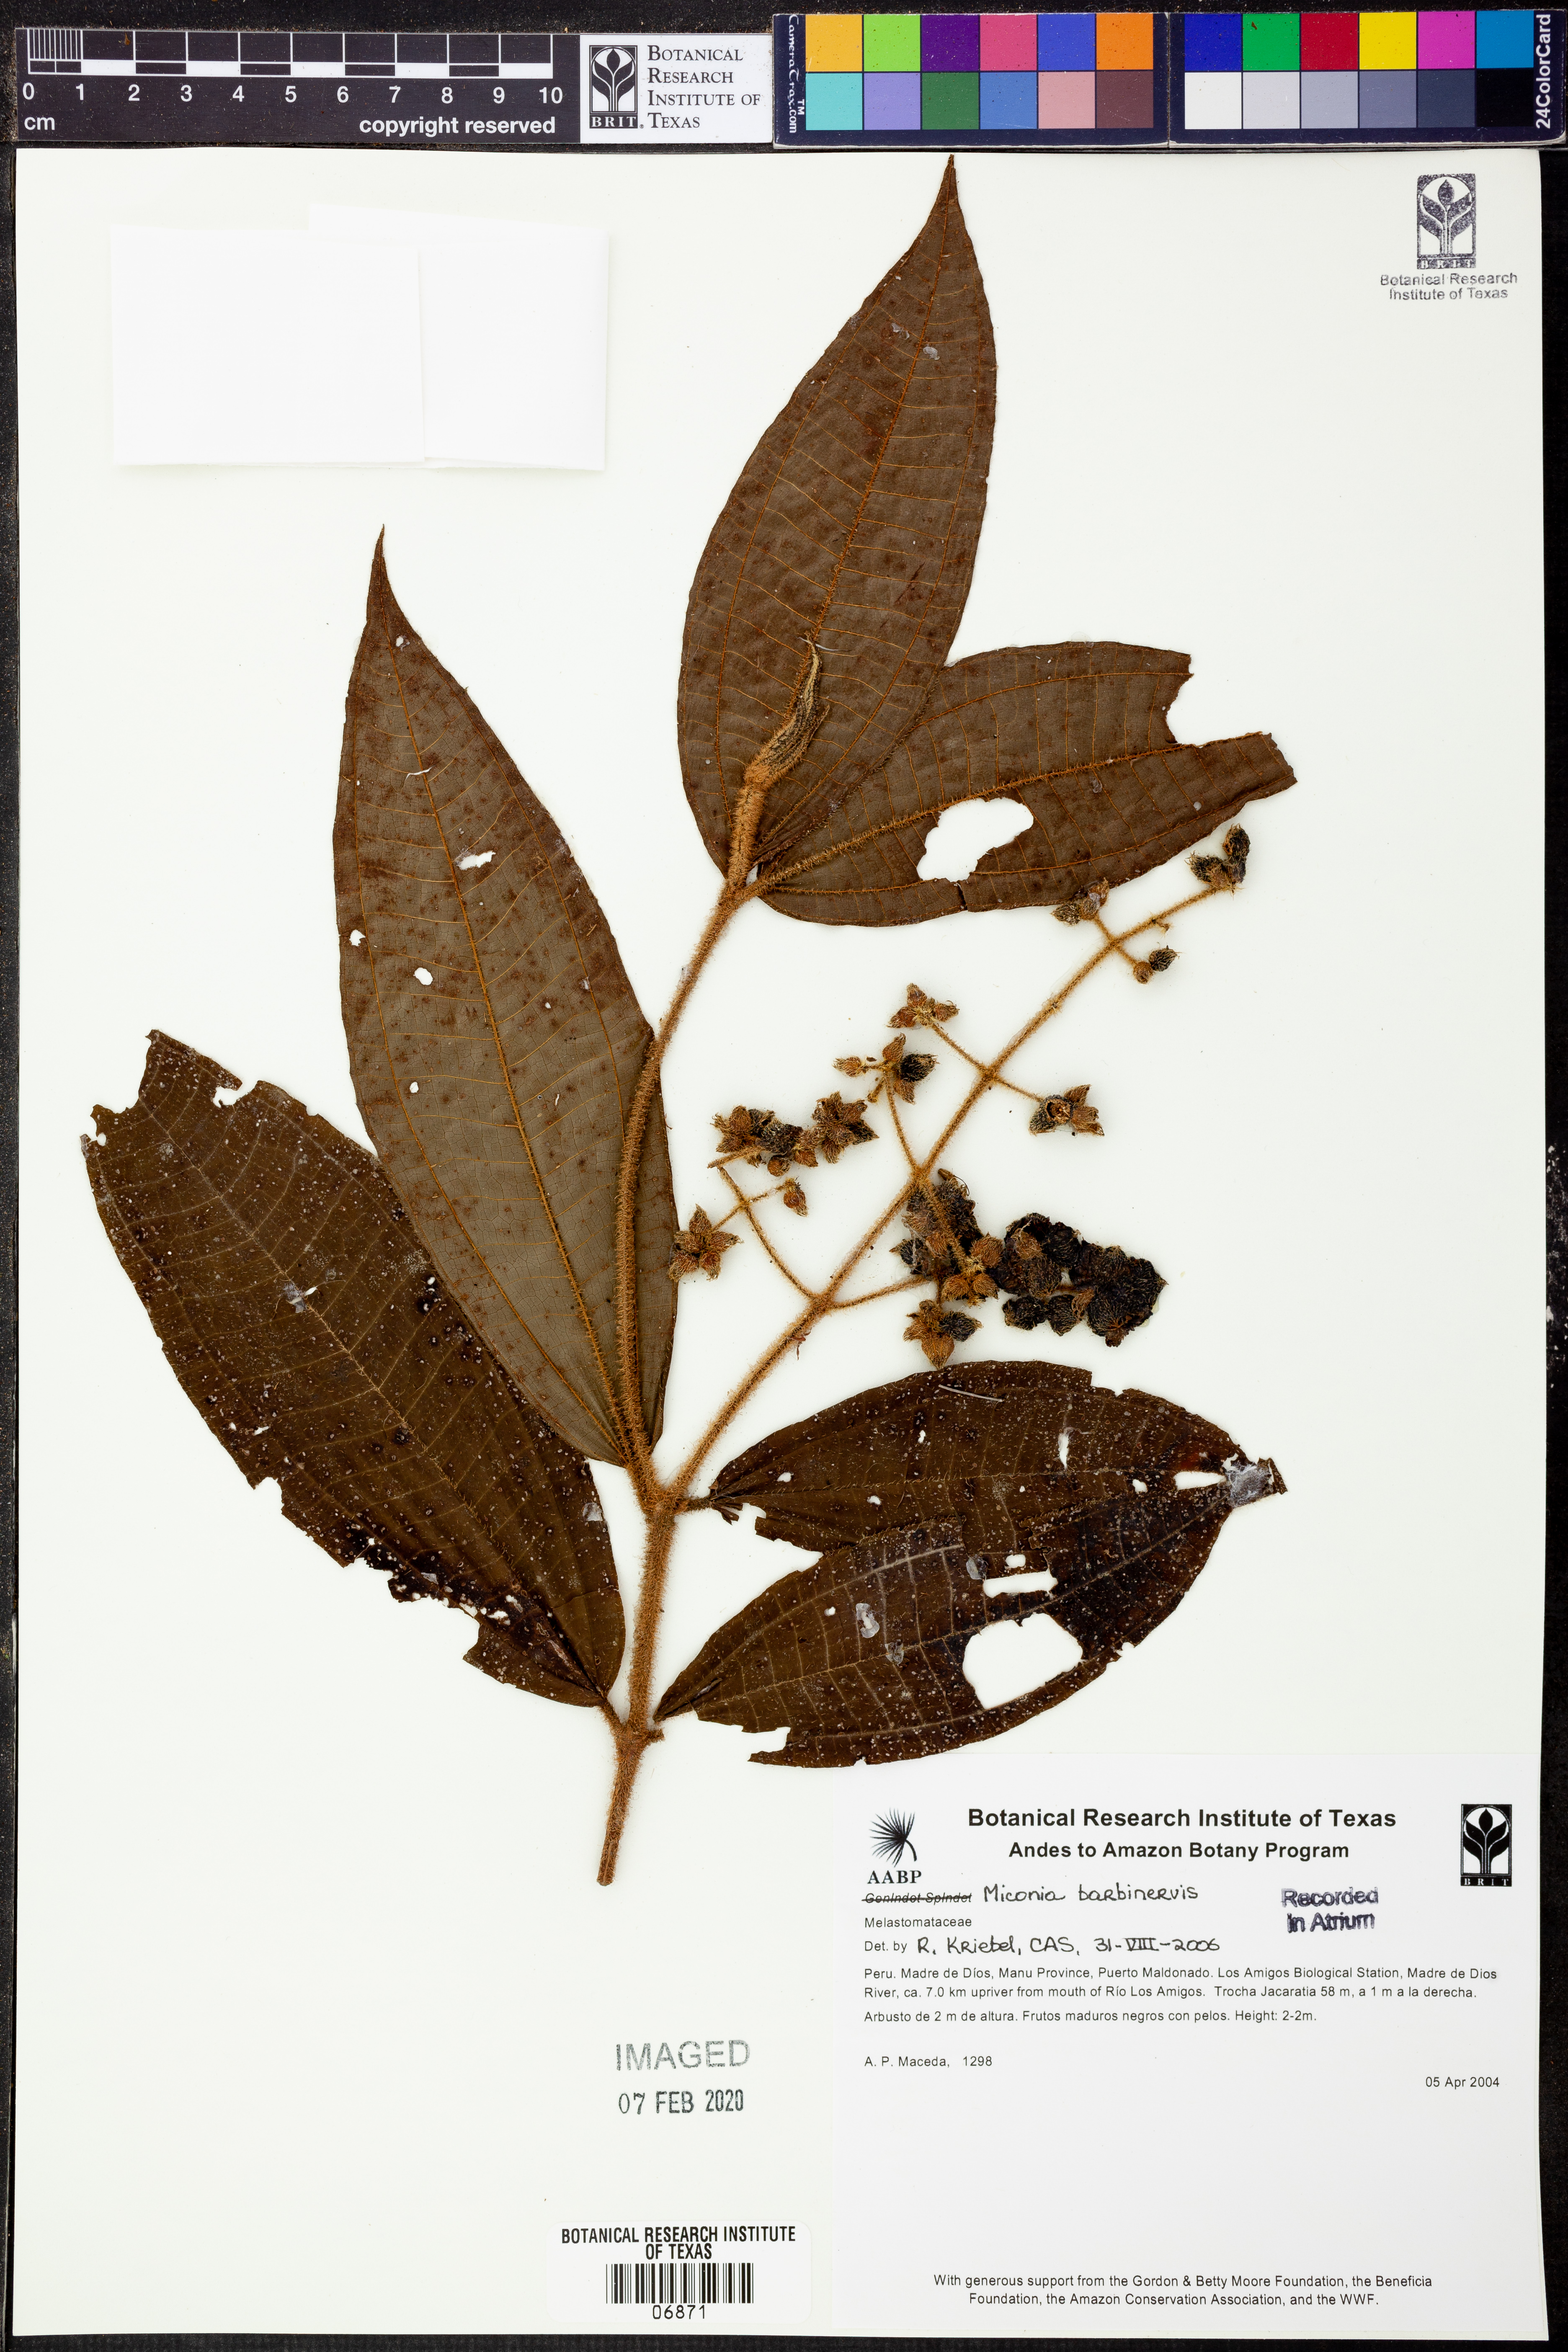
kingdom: Plantae
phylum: Tracheophyta
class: Magnoliopsida
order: Myrtales
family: Melastomataceae
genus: Miconia
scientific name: Miconia barbinervis
